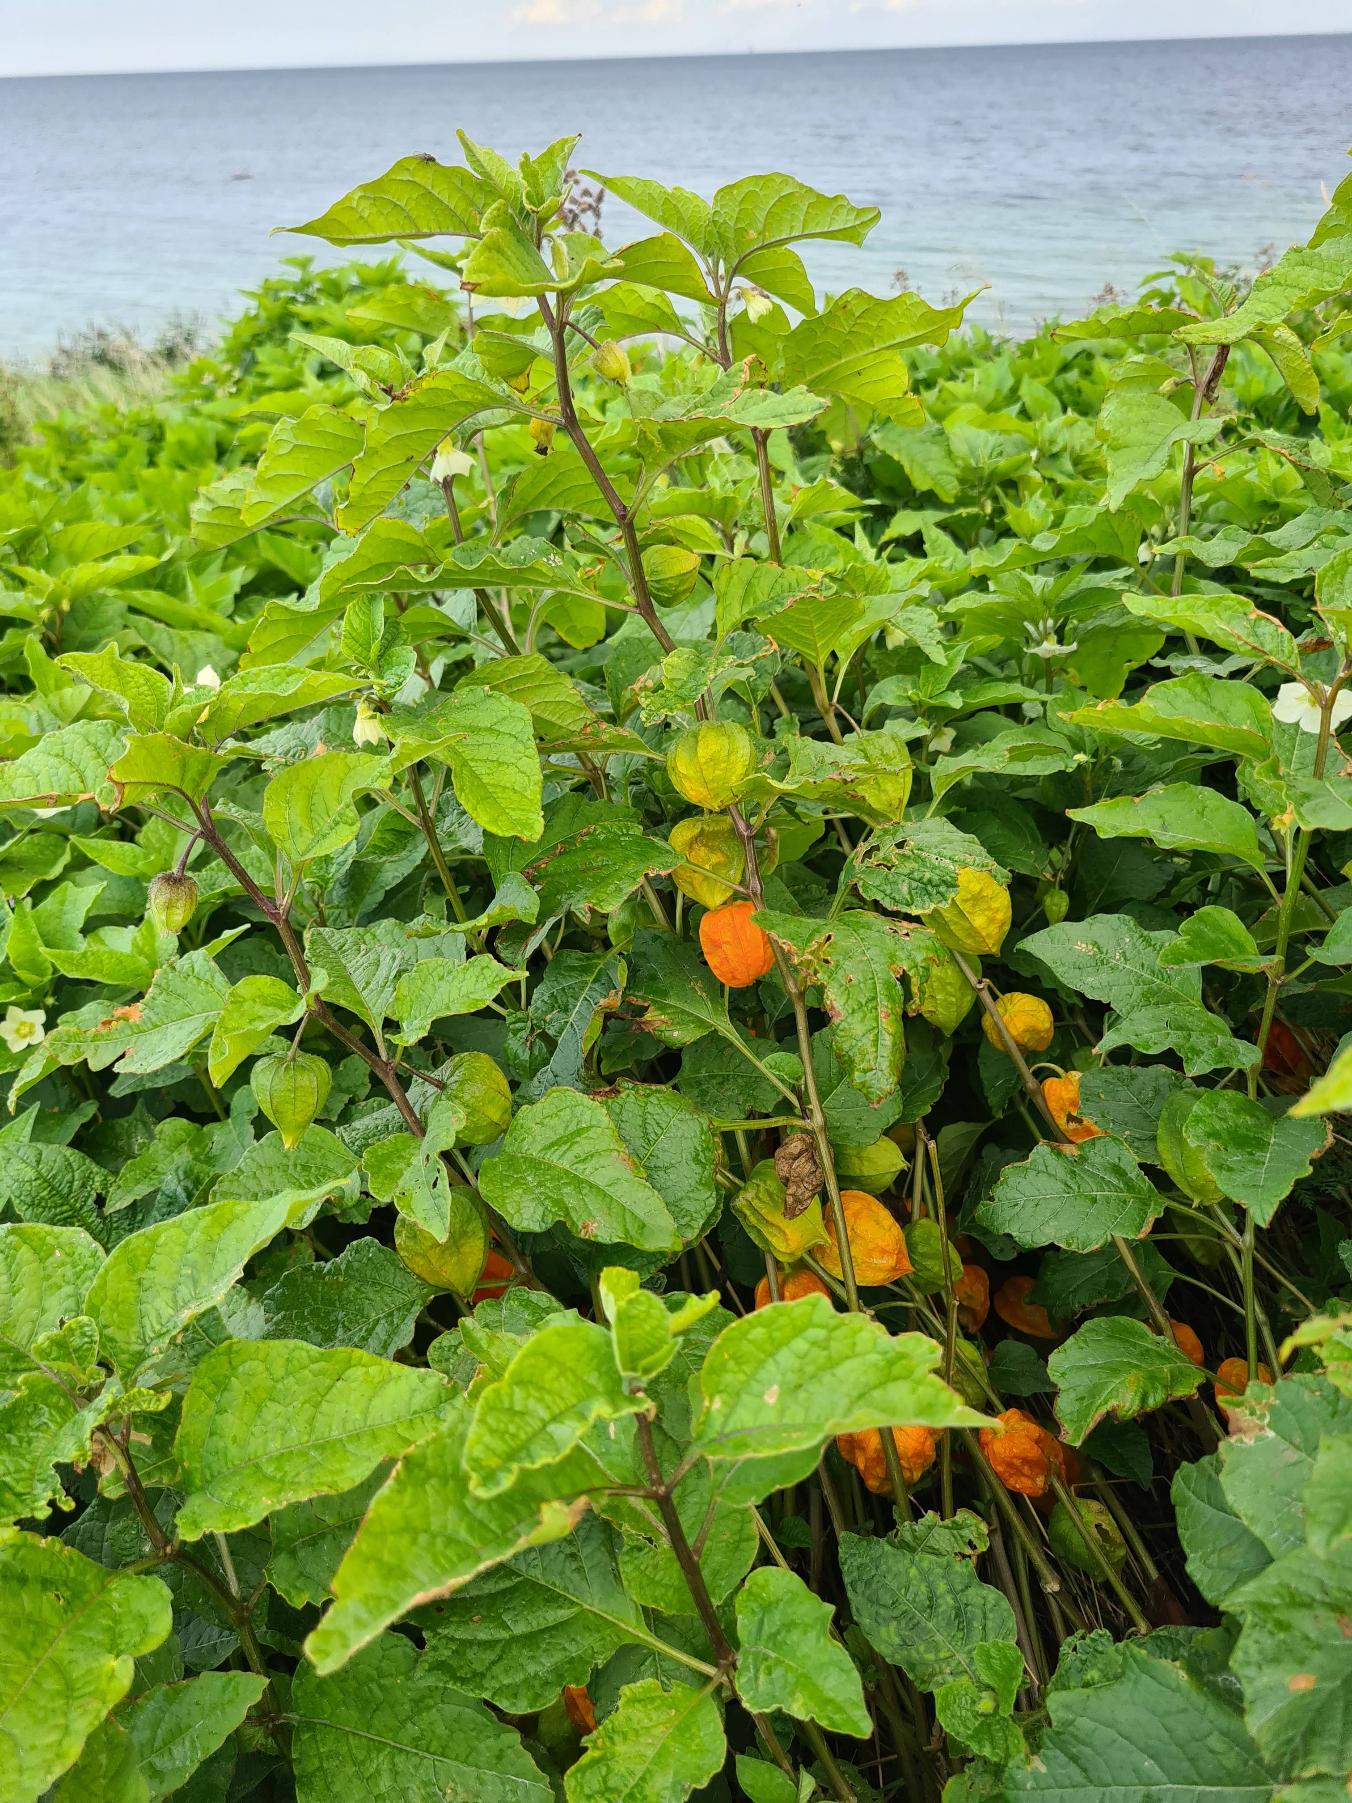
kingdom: Plantae
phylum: Tracheophyta
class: Magnoliopsida
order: Solanales
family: Solanaceae
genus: Alkekengi
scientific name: Alkekengi officinarum
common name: Jødekirsebær
